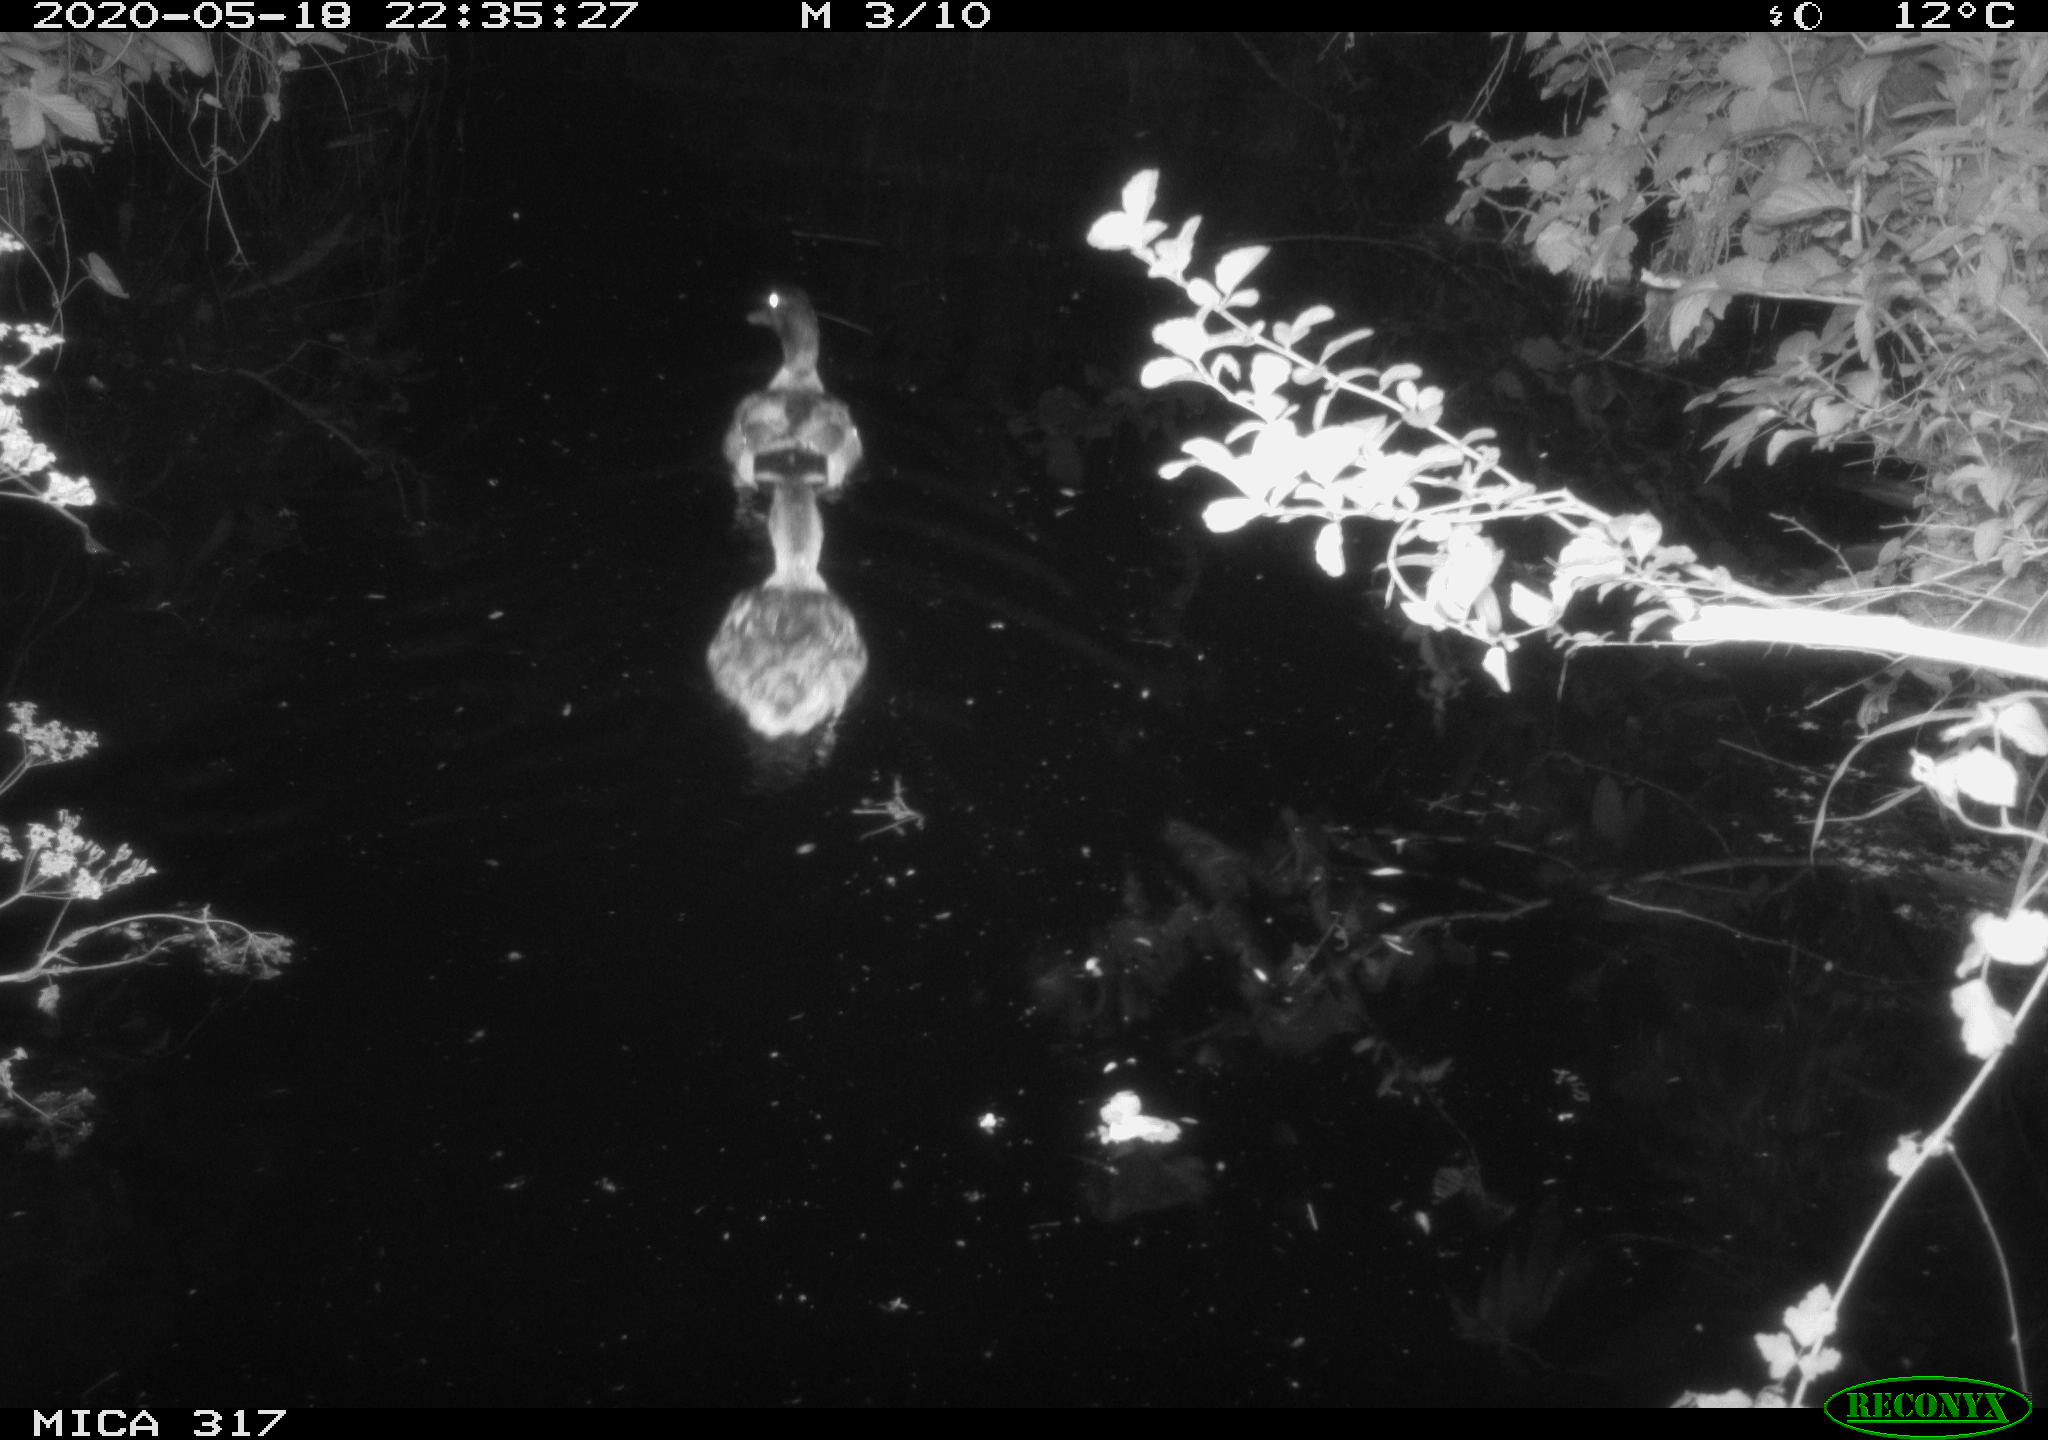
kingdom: Animalia
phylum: Chordata
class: Aves
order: Anseriformes
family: Anatidae
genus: Anas
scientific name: Anas platyrhynchos
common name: Mallard
